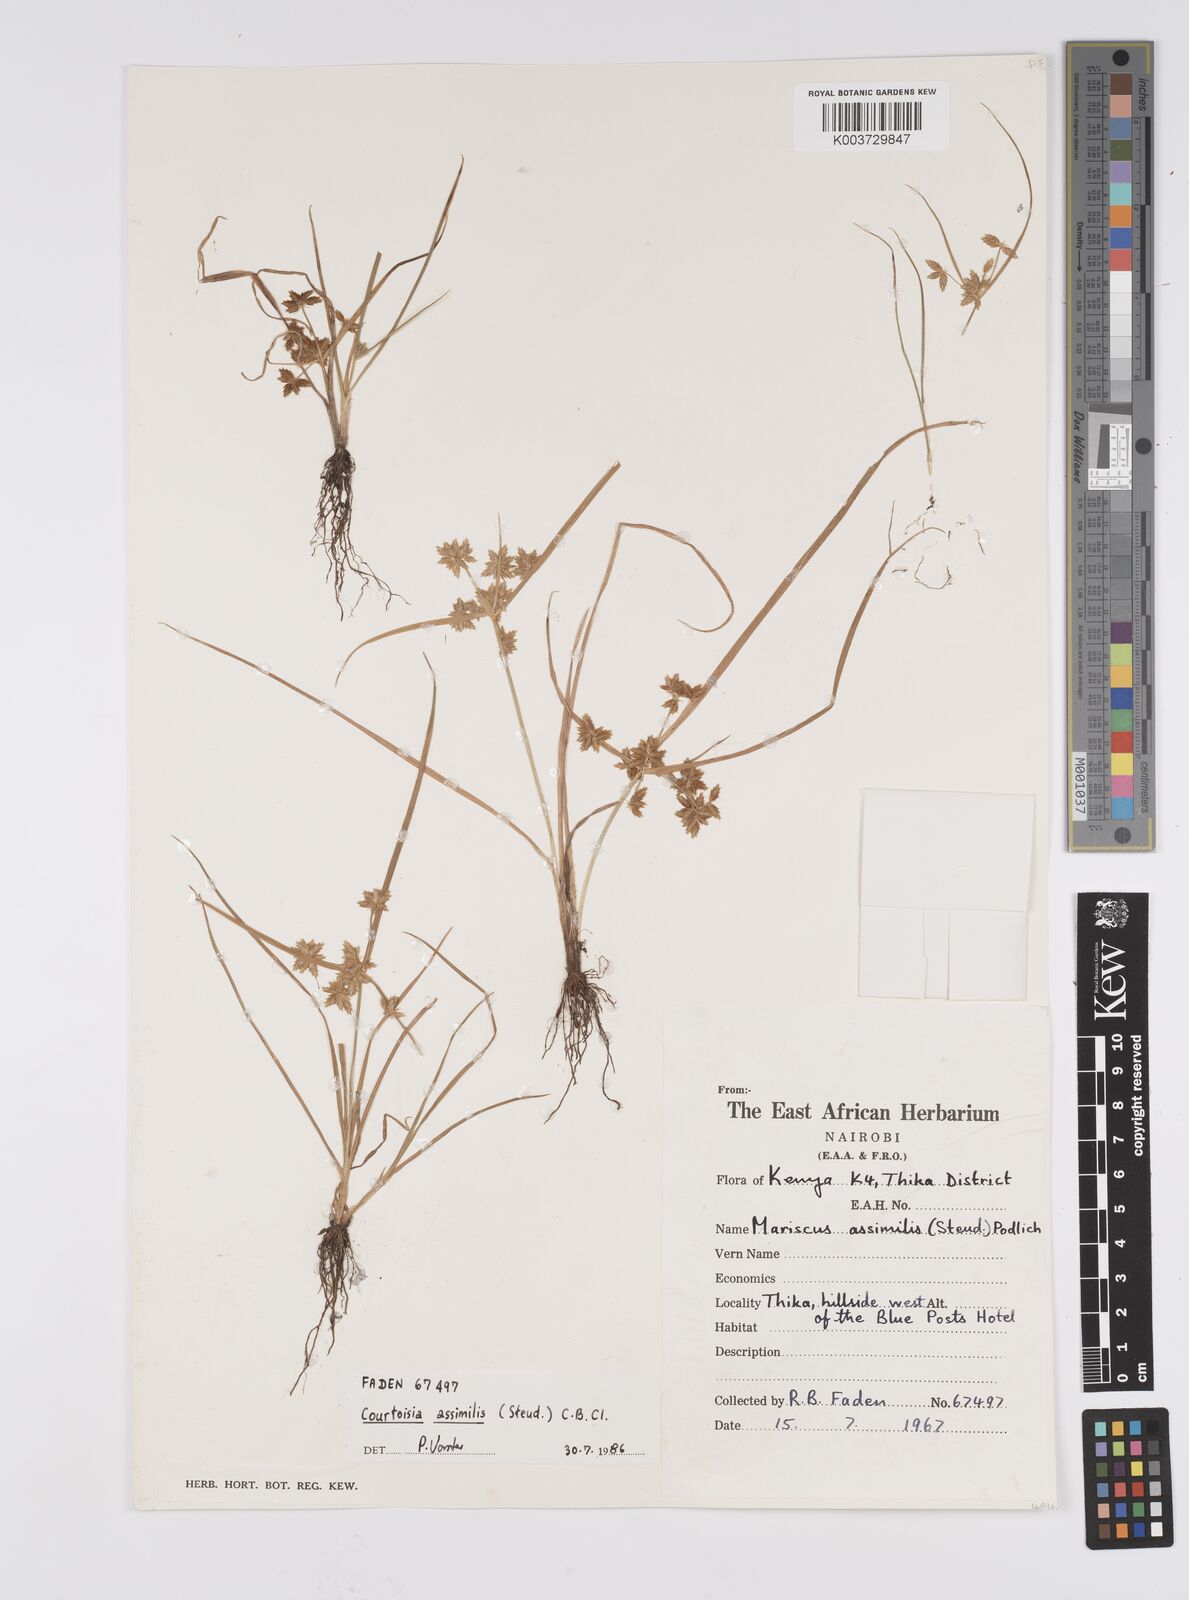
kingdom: Plantae
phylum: Tracheophyta
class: Liliopsida
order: Poales
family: Cyperaceae
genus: Cyperus
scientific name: Cyperus assimilis
